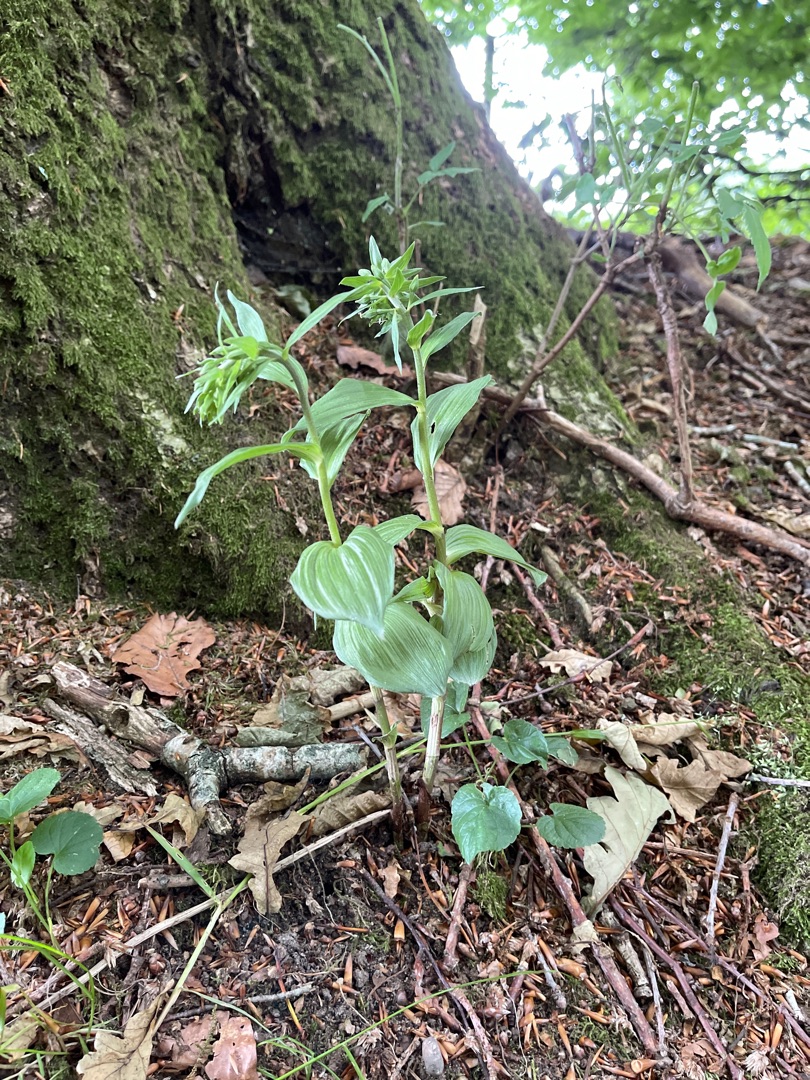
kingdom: Plantae
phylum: Tracheophyta
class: Liliopsida
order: Asparagales
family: Orchidaceae
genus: Epipactis
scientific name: Epipactis helleborine
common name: Skov-hullæbe
